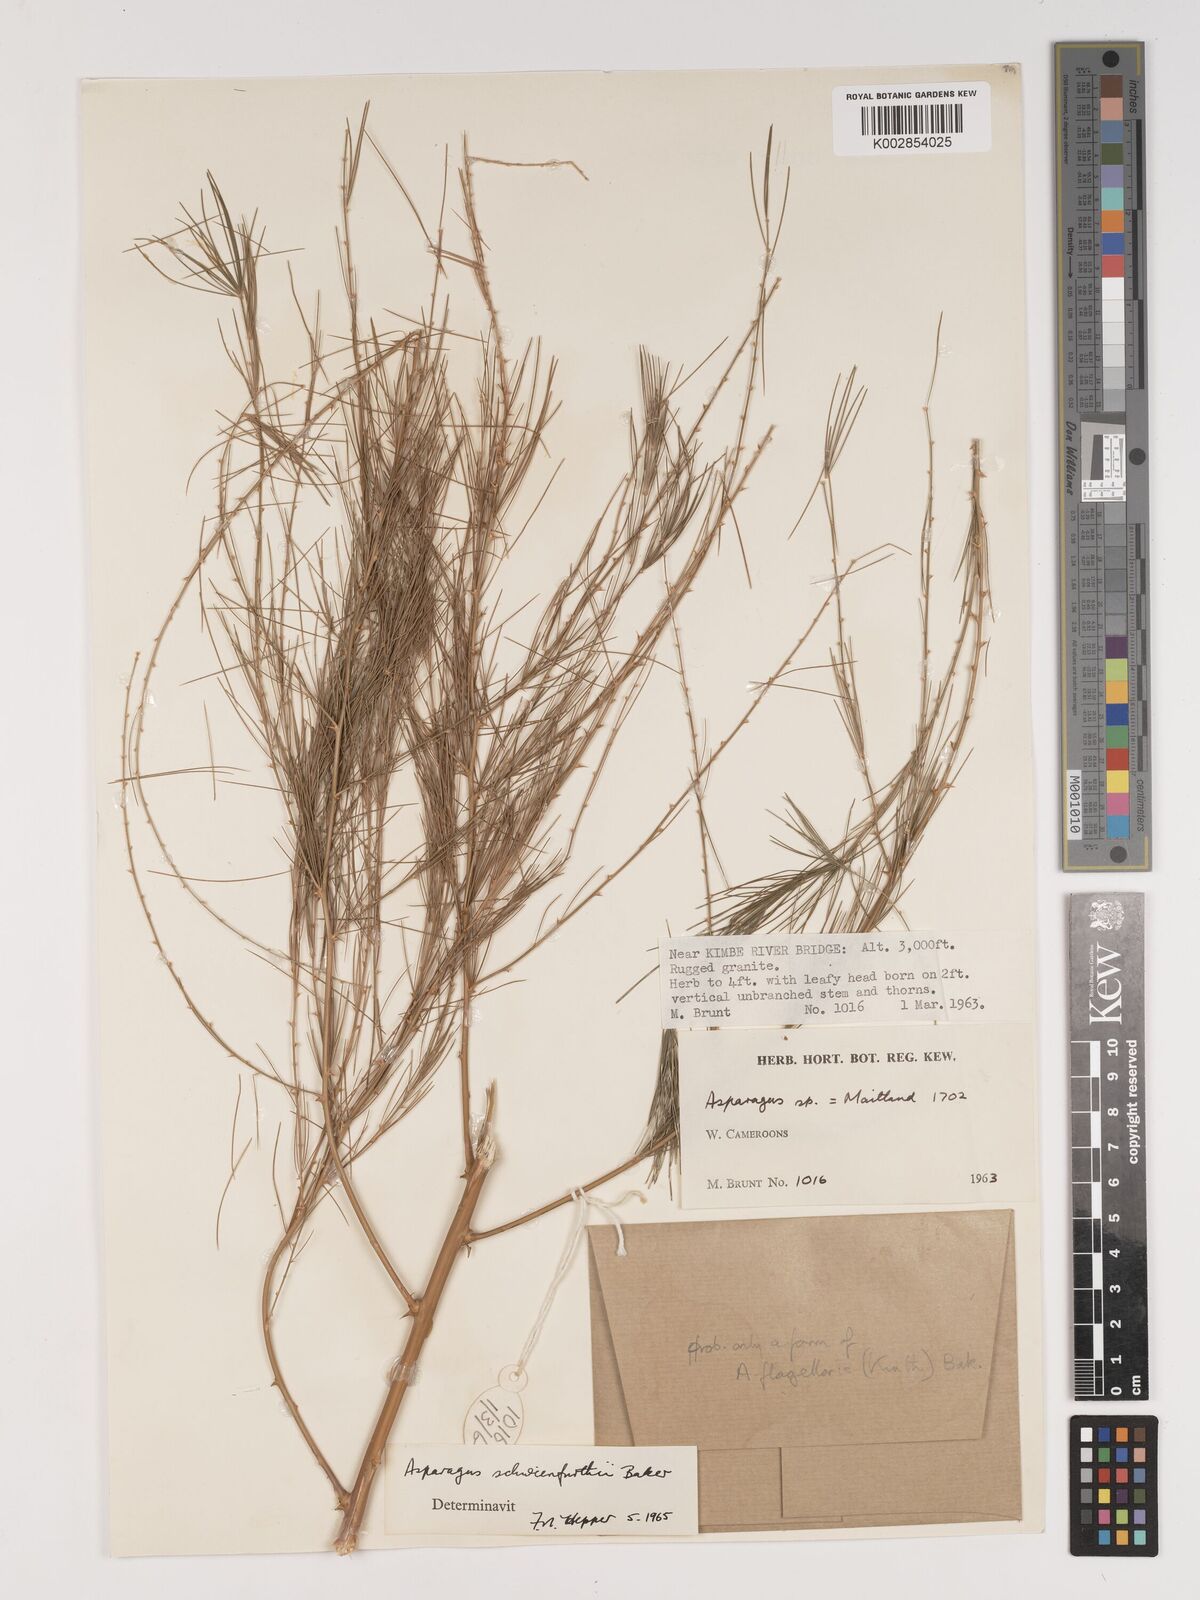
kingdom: Plantae
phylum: Tracheophyta
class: Liliopsida
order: Asparagales
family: Asparagaceae
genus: Asparagus
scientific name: Asparagus flagellaris
